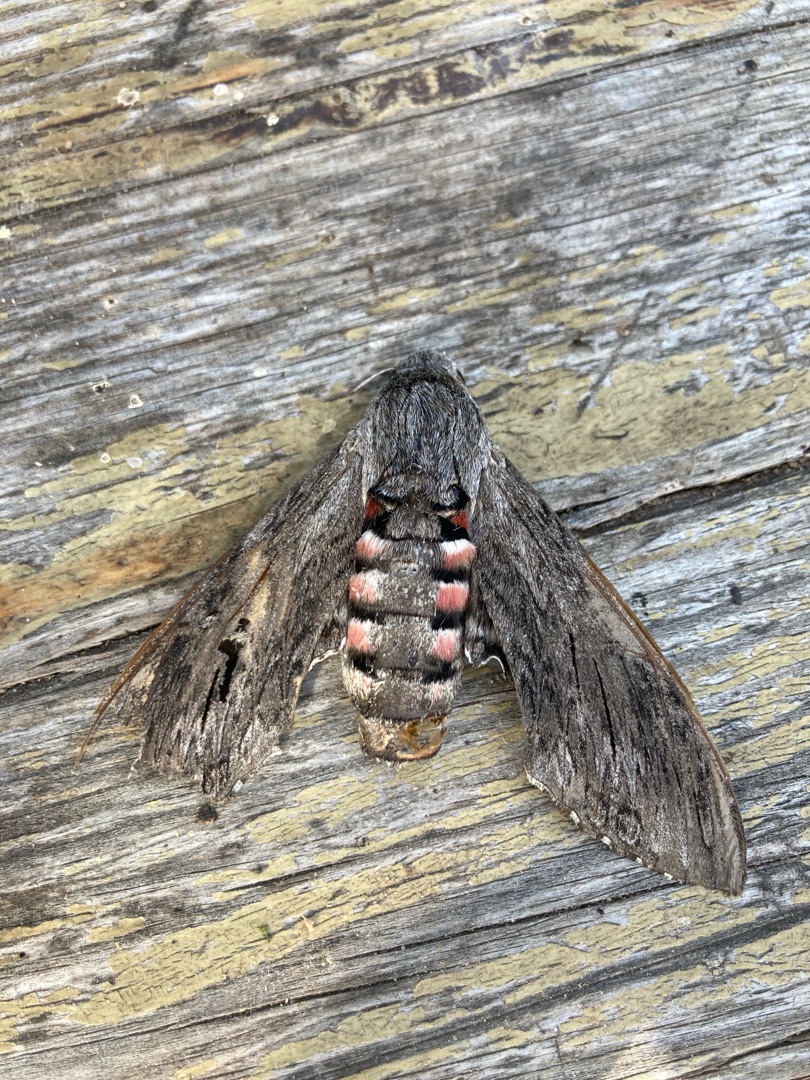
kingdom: Animalia
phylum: Arthropoda
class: Insecta
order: Lepidoptera
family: Sphingidae
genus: Agrius
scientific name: Agrius convolvuli
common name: Snerlesværmer
